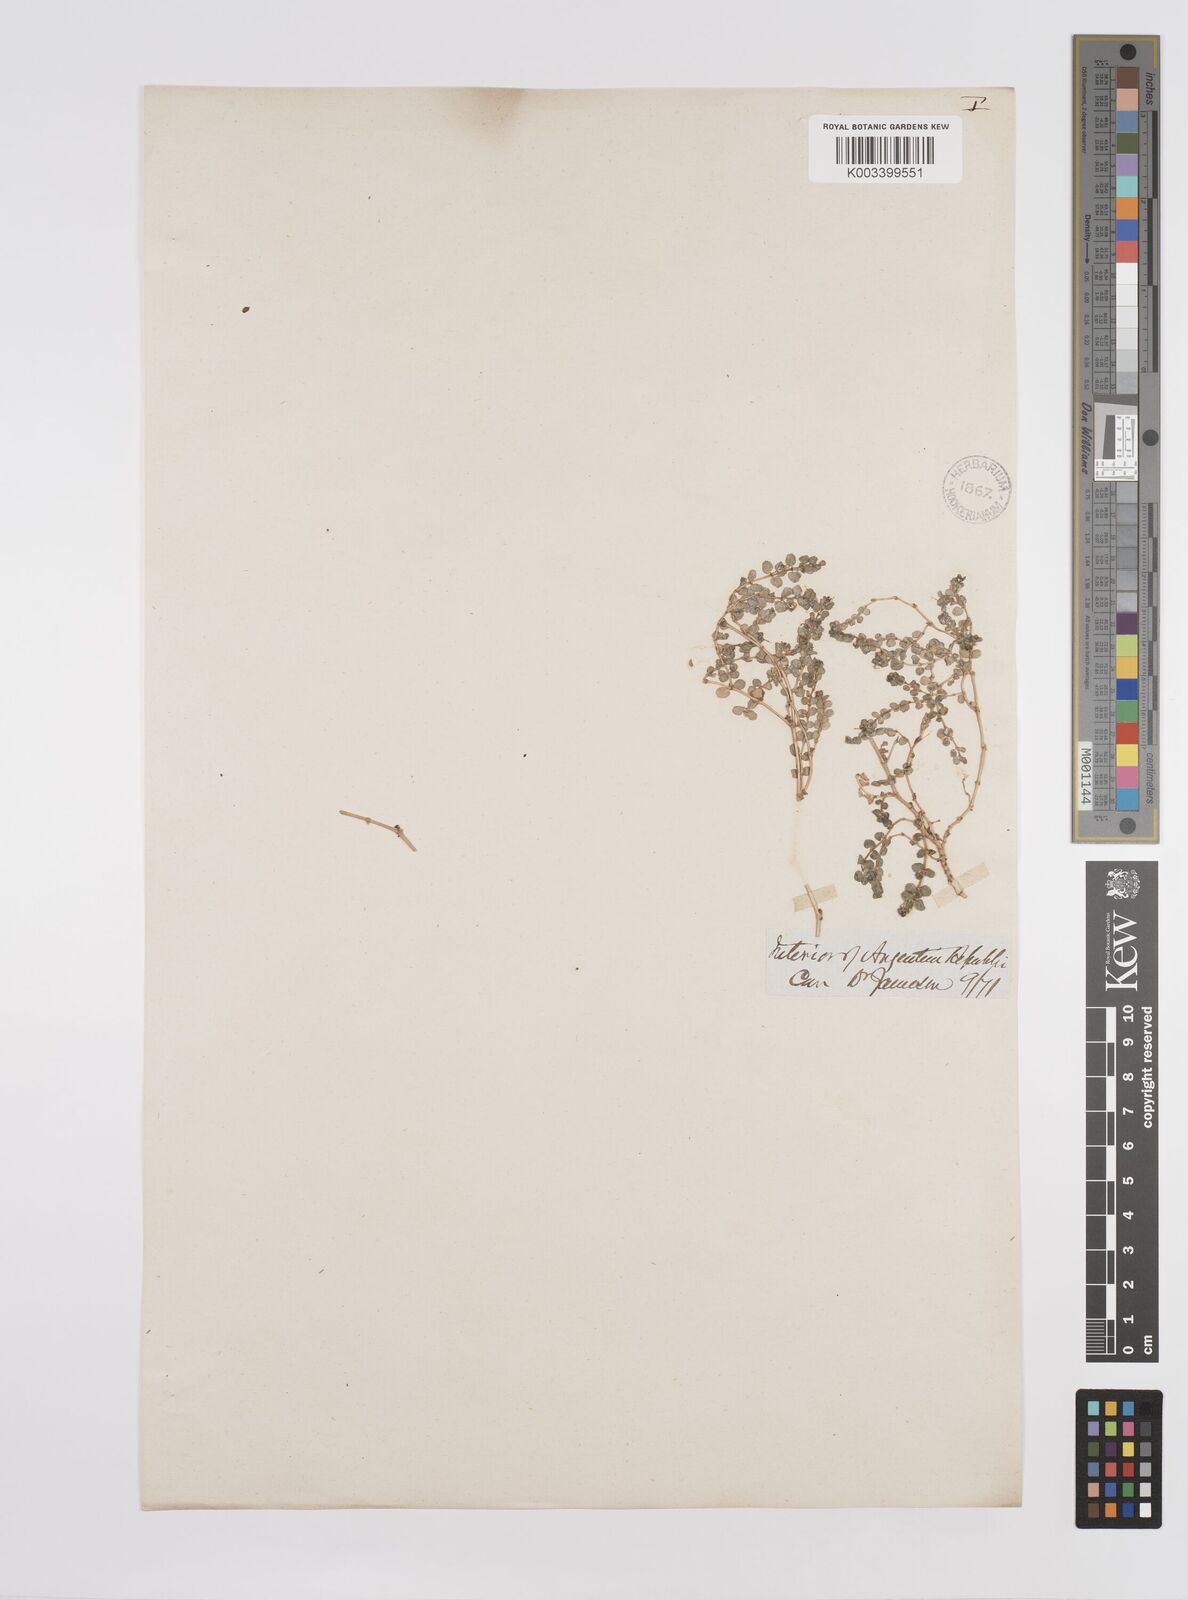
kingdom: Plantae
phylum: Tracheophyta
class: Magnoliopsida
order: Malpighiales
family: Euphorbiaceae
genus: Euphorbia
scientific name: Euphorbia
